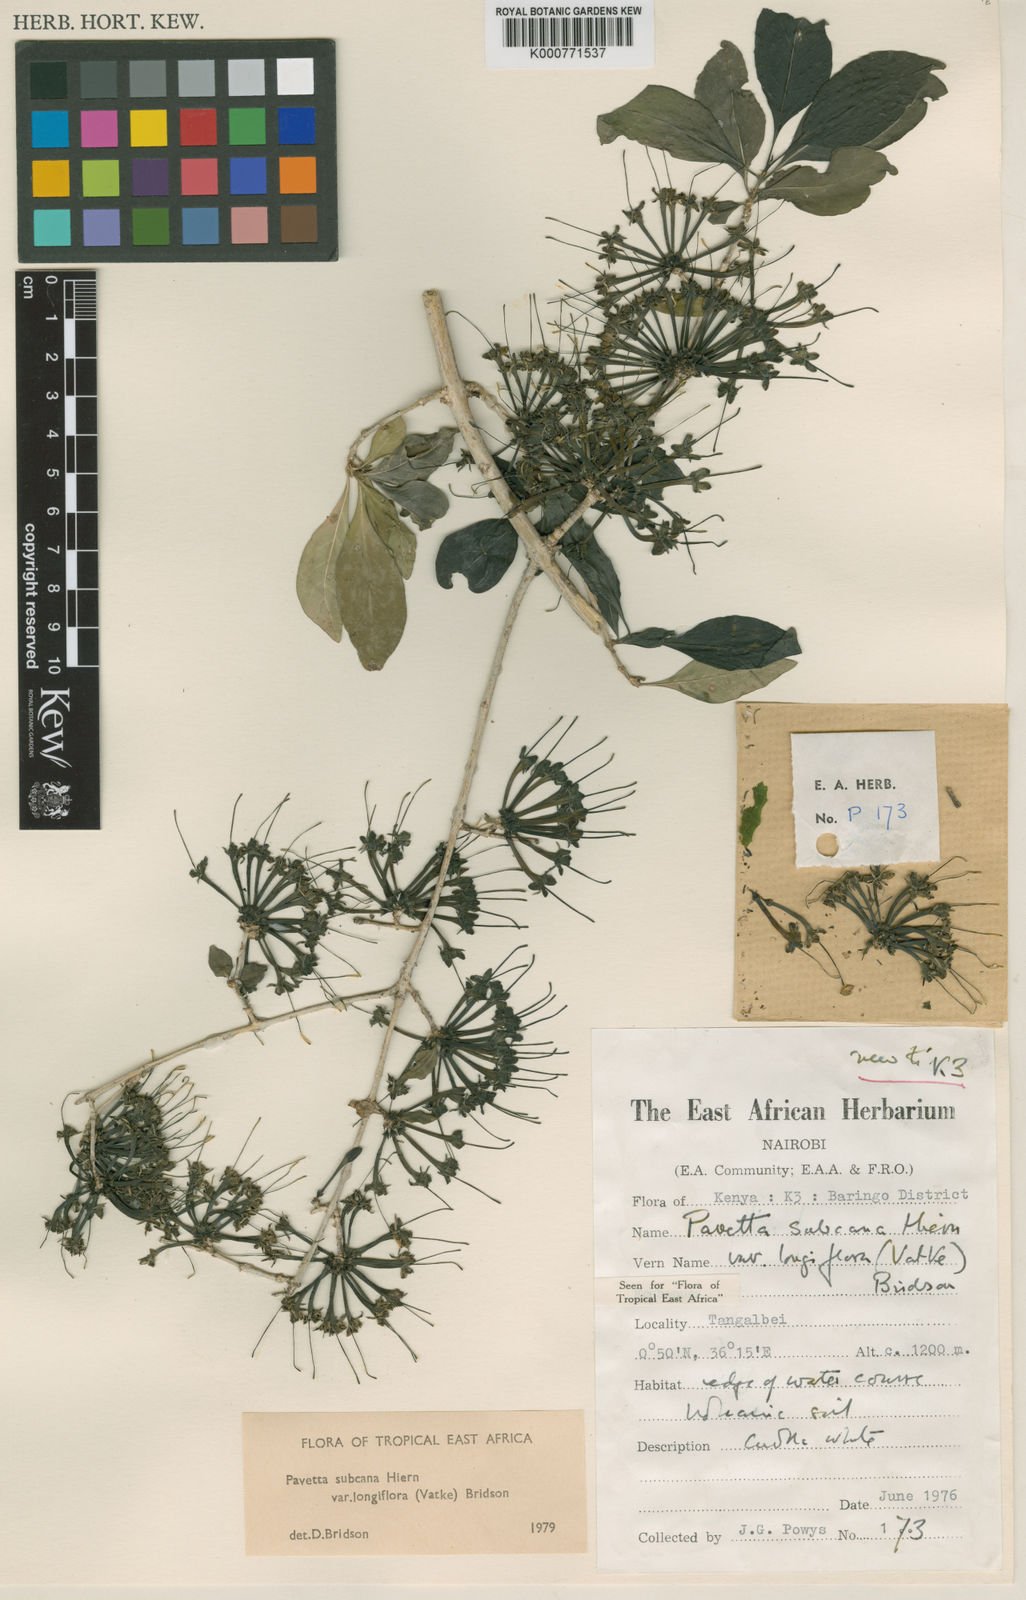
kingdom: Plantae
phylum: Tracheophyta
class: Magnoliopsida
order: Gentianales
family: Rubiaceae
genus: Pavetta
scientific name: Pavetta subcana
